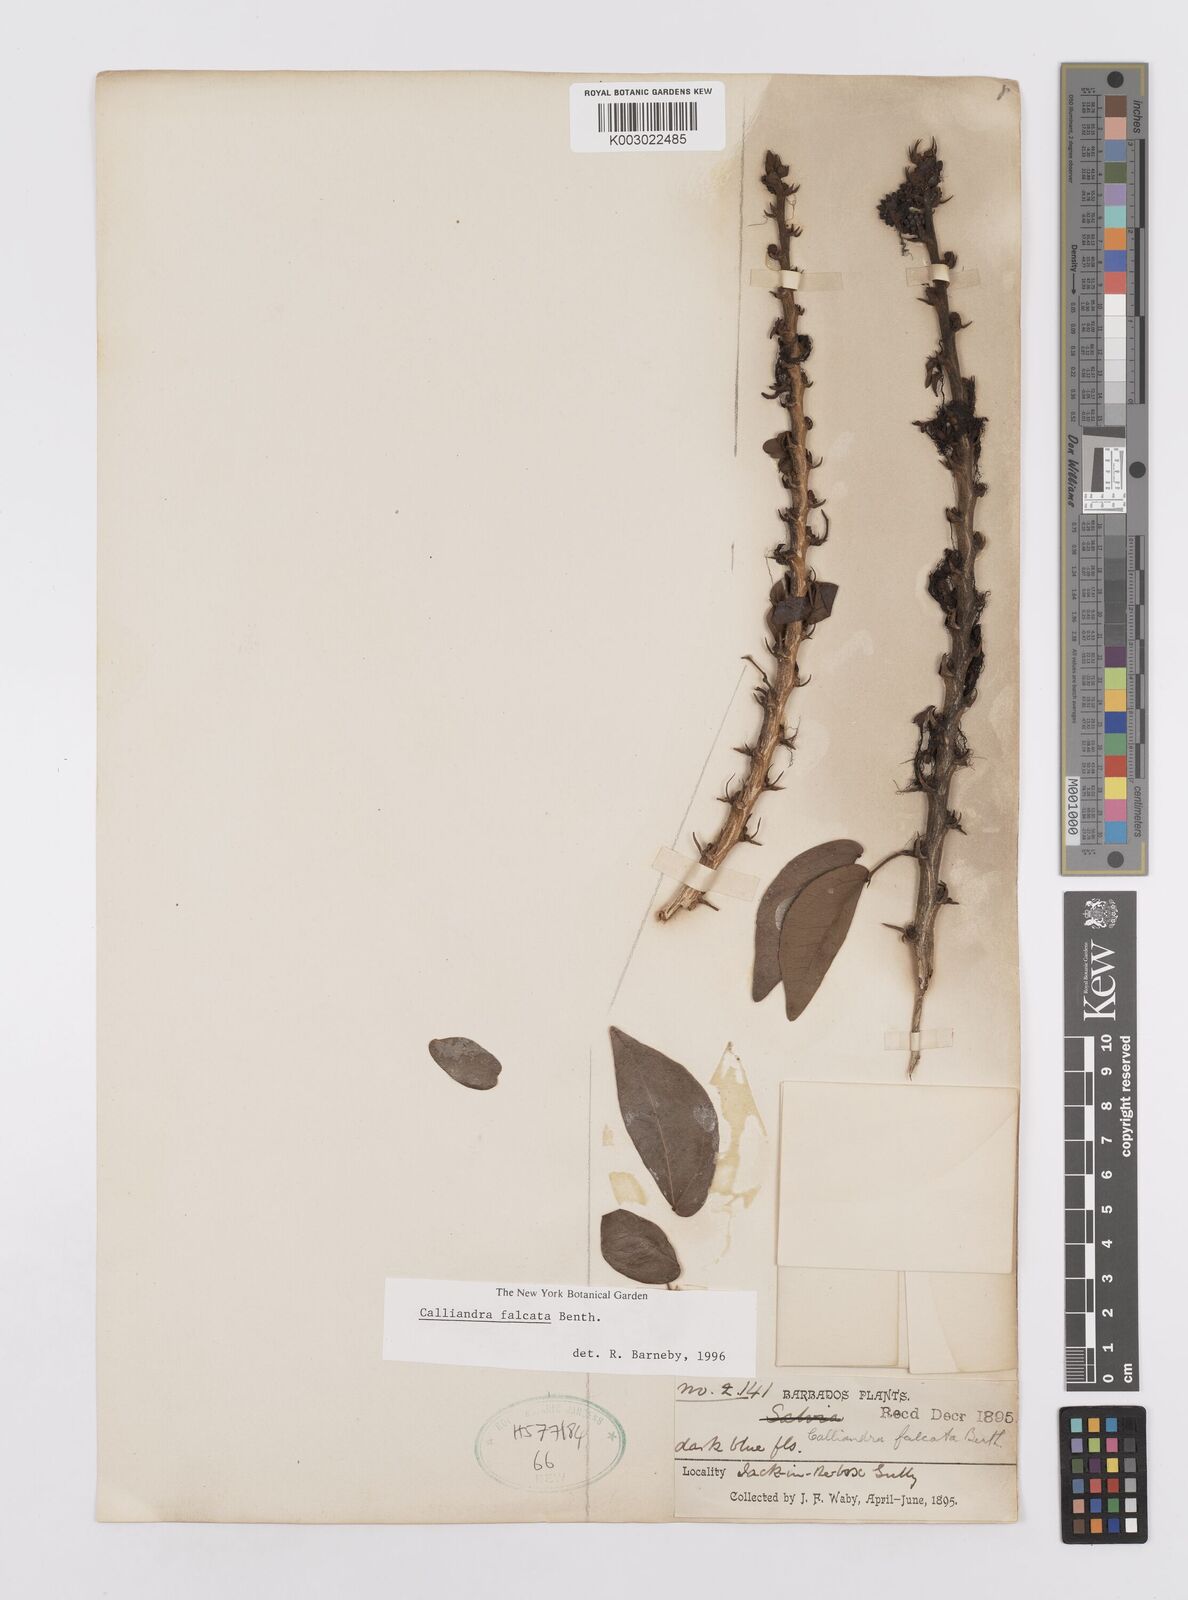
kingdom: Plantae
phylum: Tracheophyta
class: Magnoliopsida
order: Fabales
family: Fabaceae
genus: Calliandra
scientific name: Calliandra falcata
